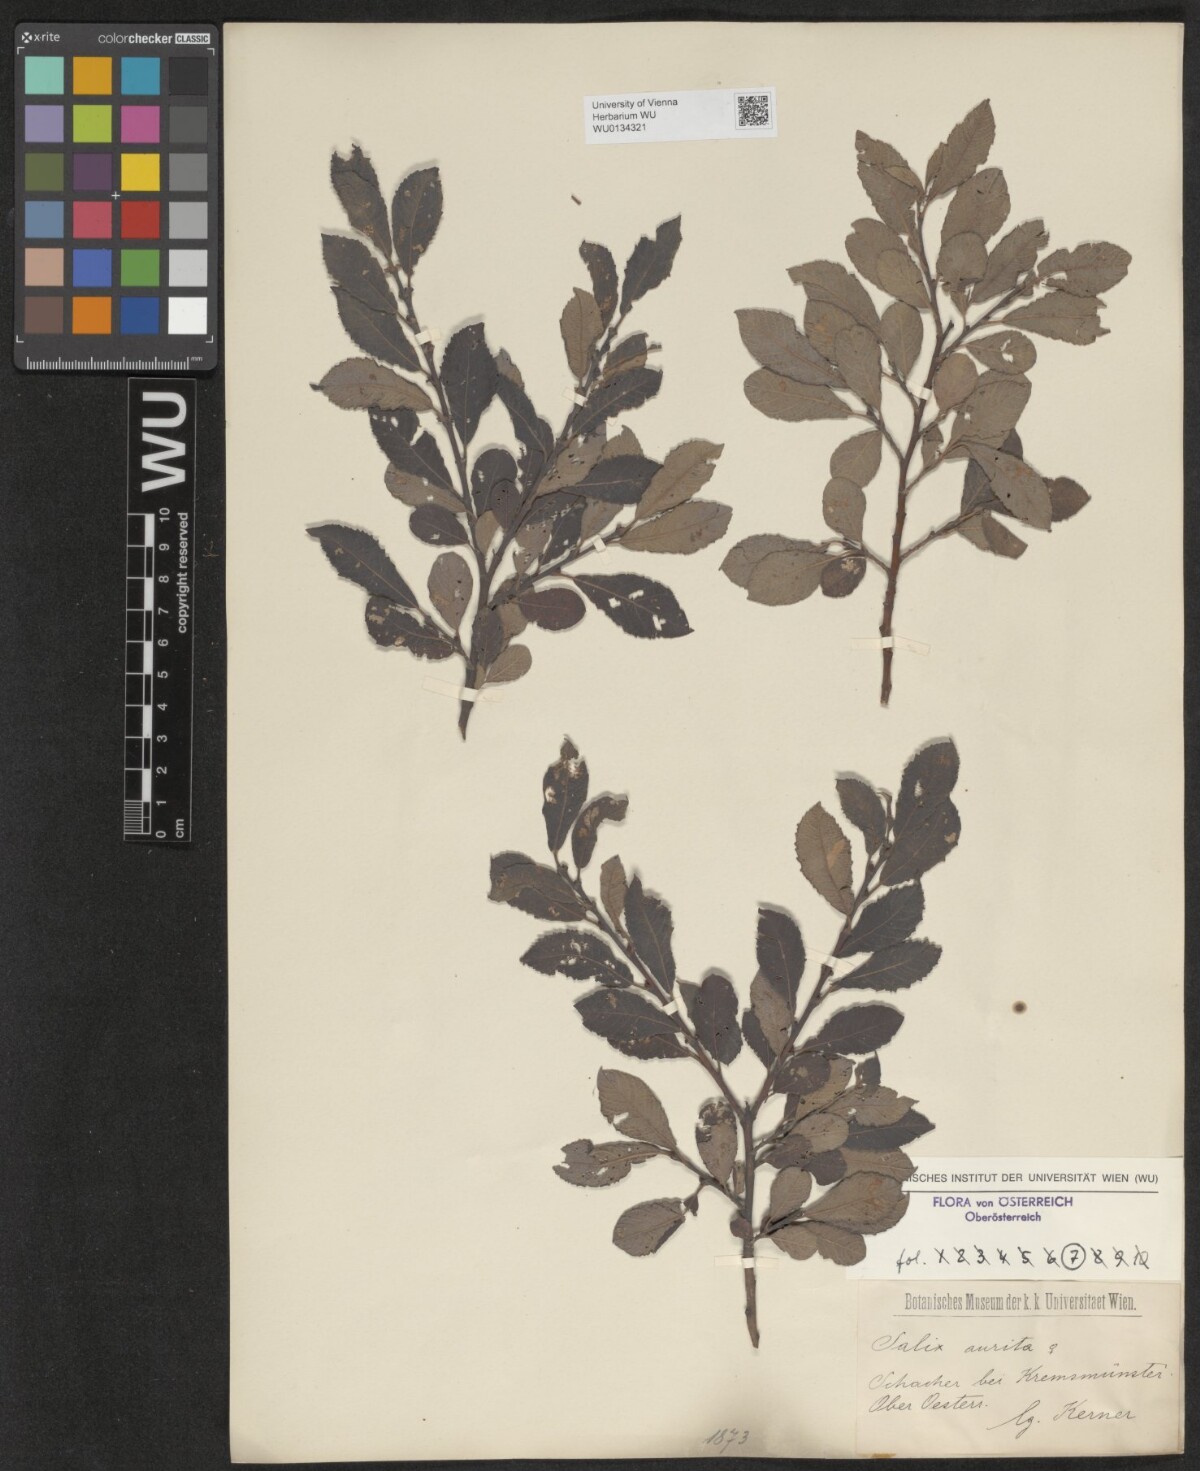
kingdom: Plantae
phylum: Tracheophyta
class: Magnoliopsida
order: Malpighiales
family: Salicaceae
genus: Salix
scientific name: Salix aurita
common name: Eared willow
